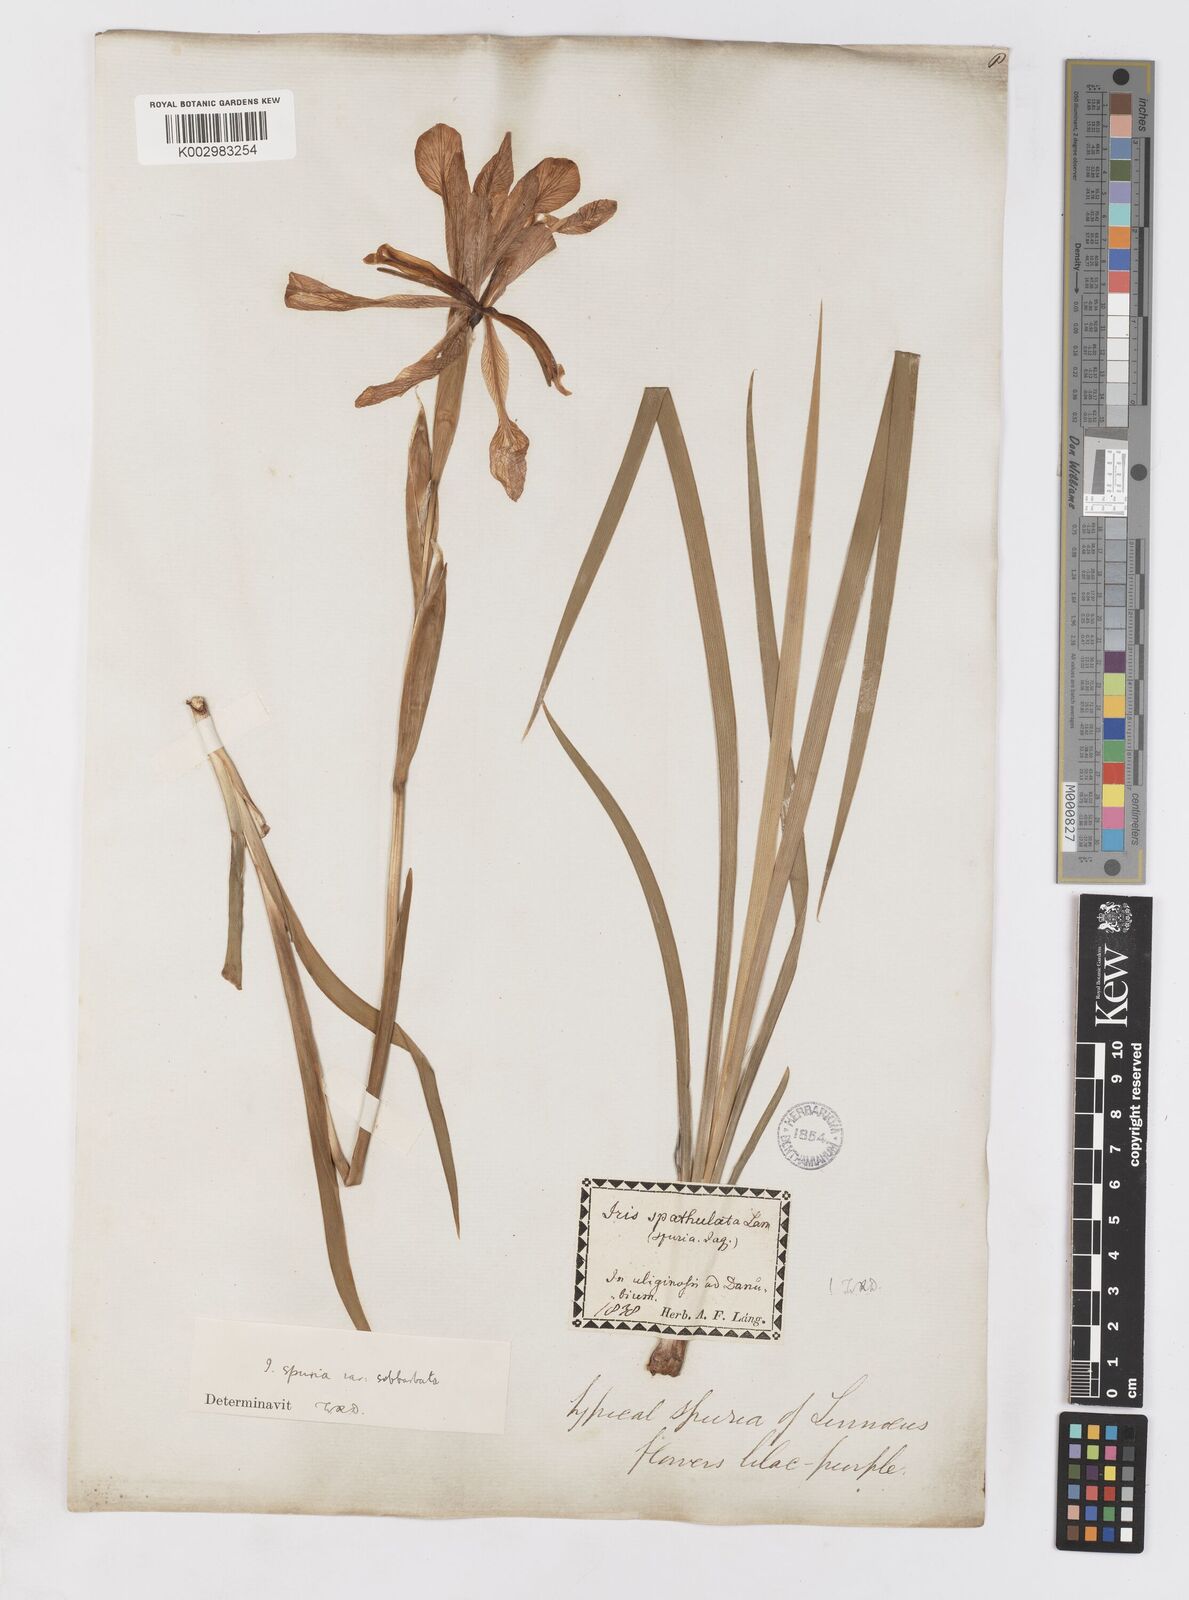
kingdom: Plantae
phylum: Tracheophyta
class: Liliopsida
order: Asparagales
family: Iridaceae
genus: Iris
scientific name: Iris spuria
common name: Blue iris
